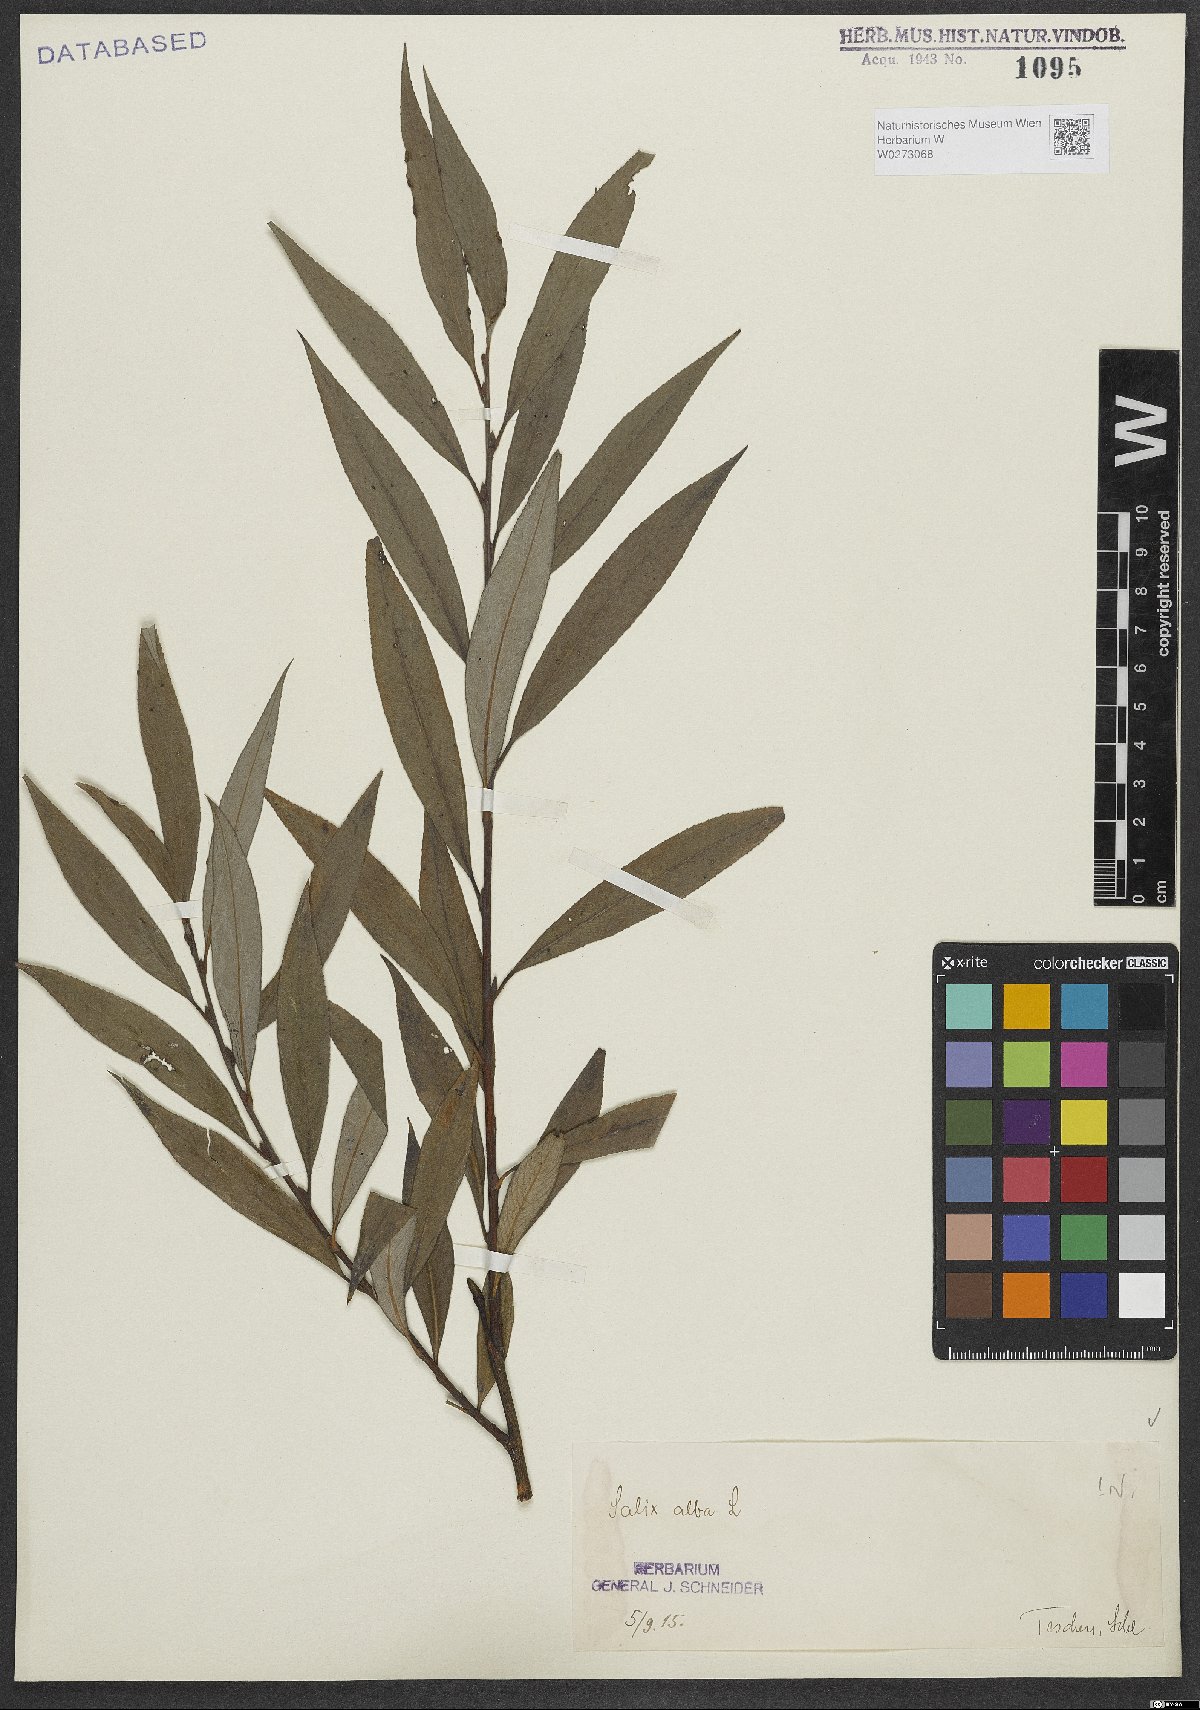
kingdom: Plantae
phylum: Tracheophyta
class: Magnoliopsida
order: Malpighiales
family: Salicaceae
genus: Salix
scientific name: Salix alba
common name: White willow
